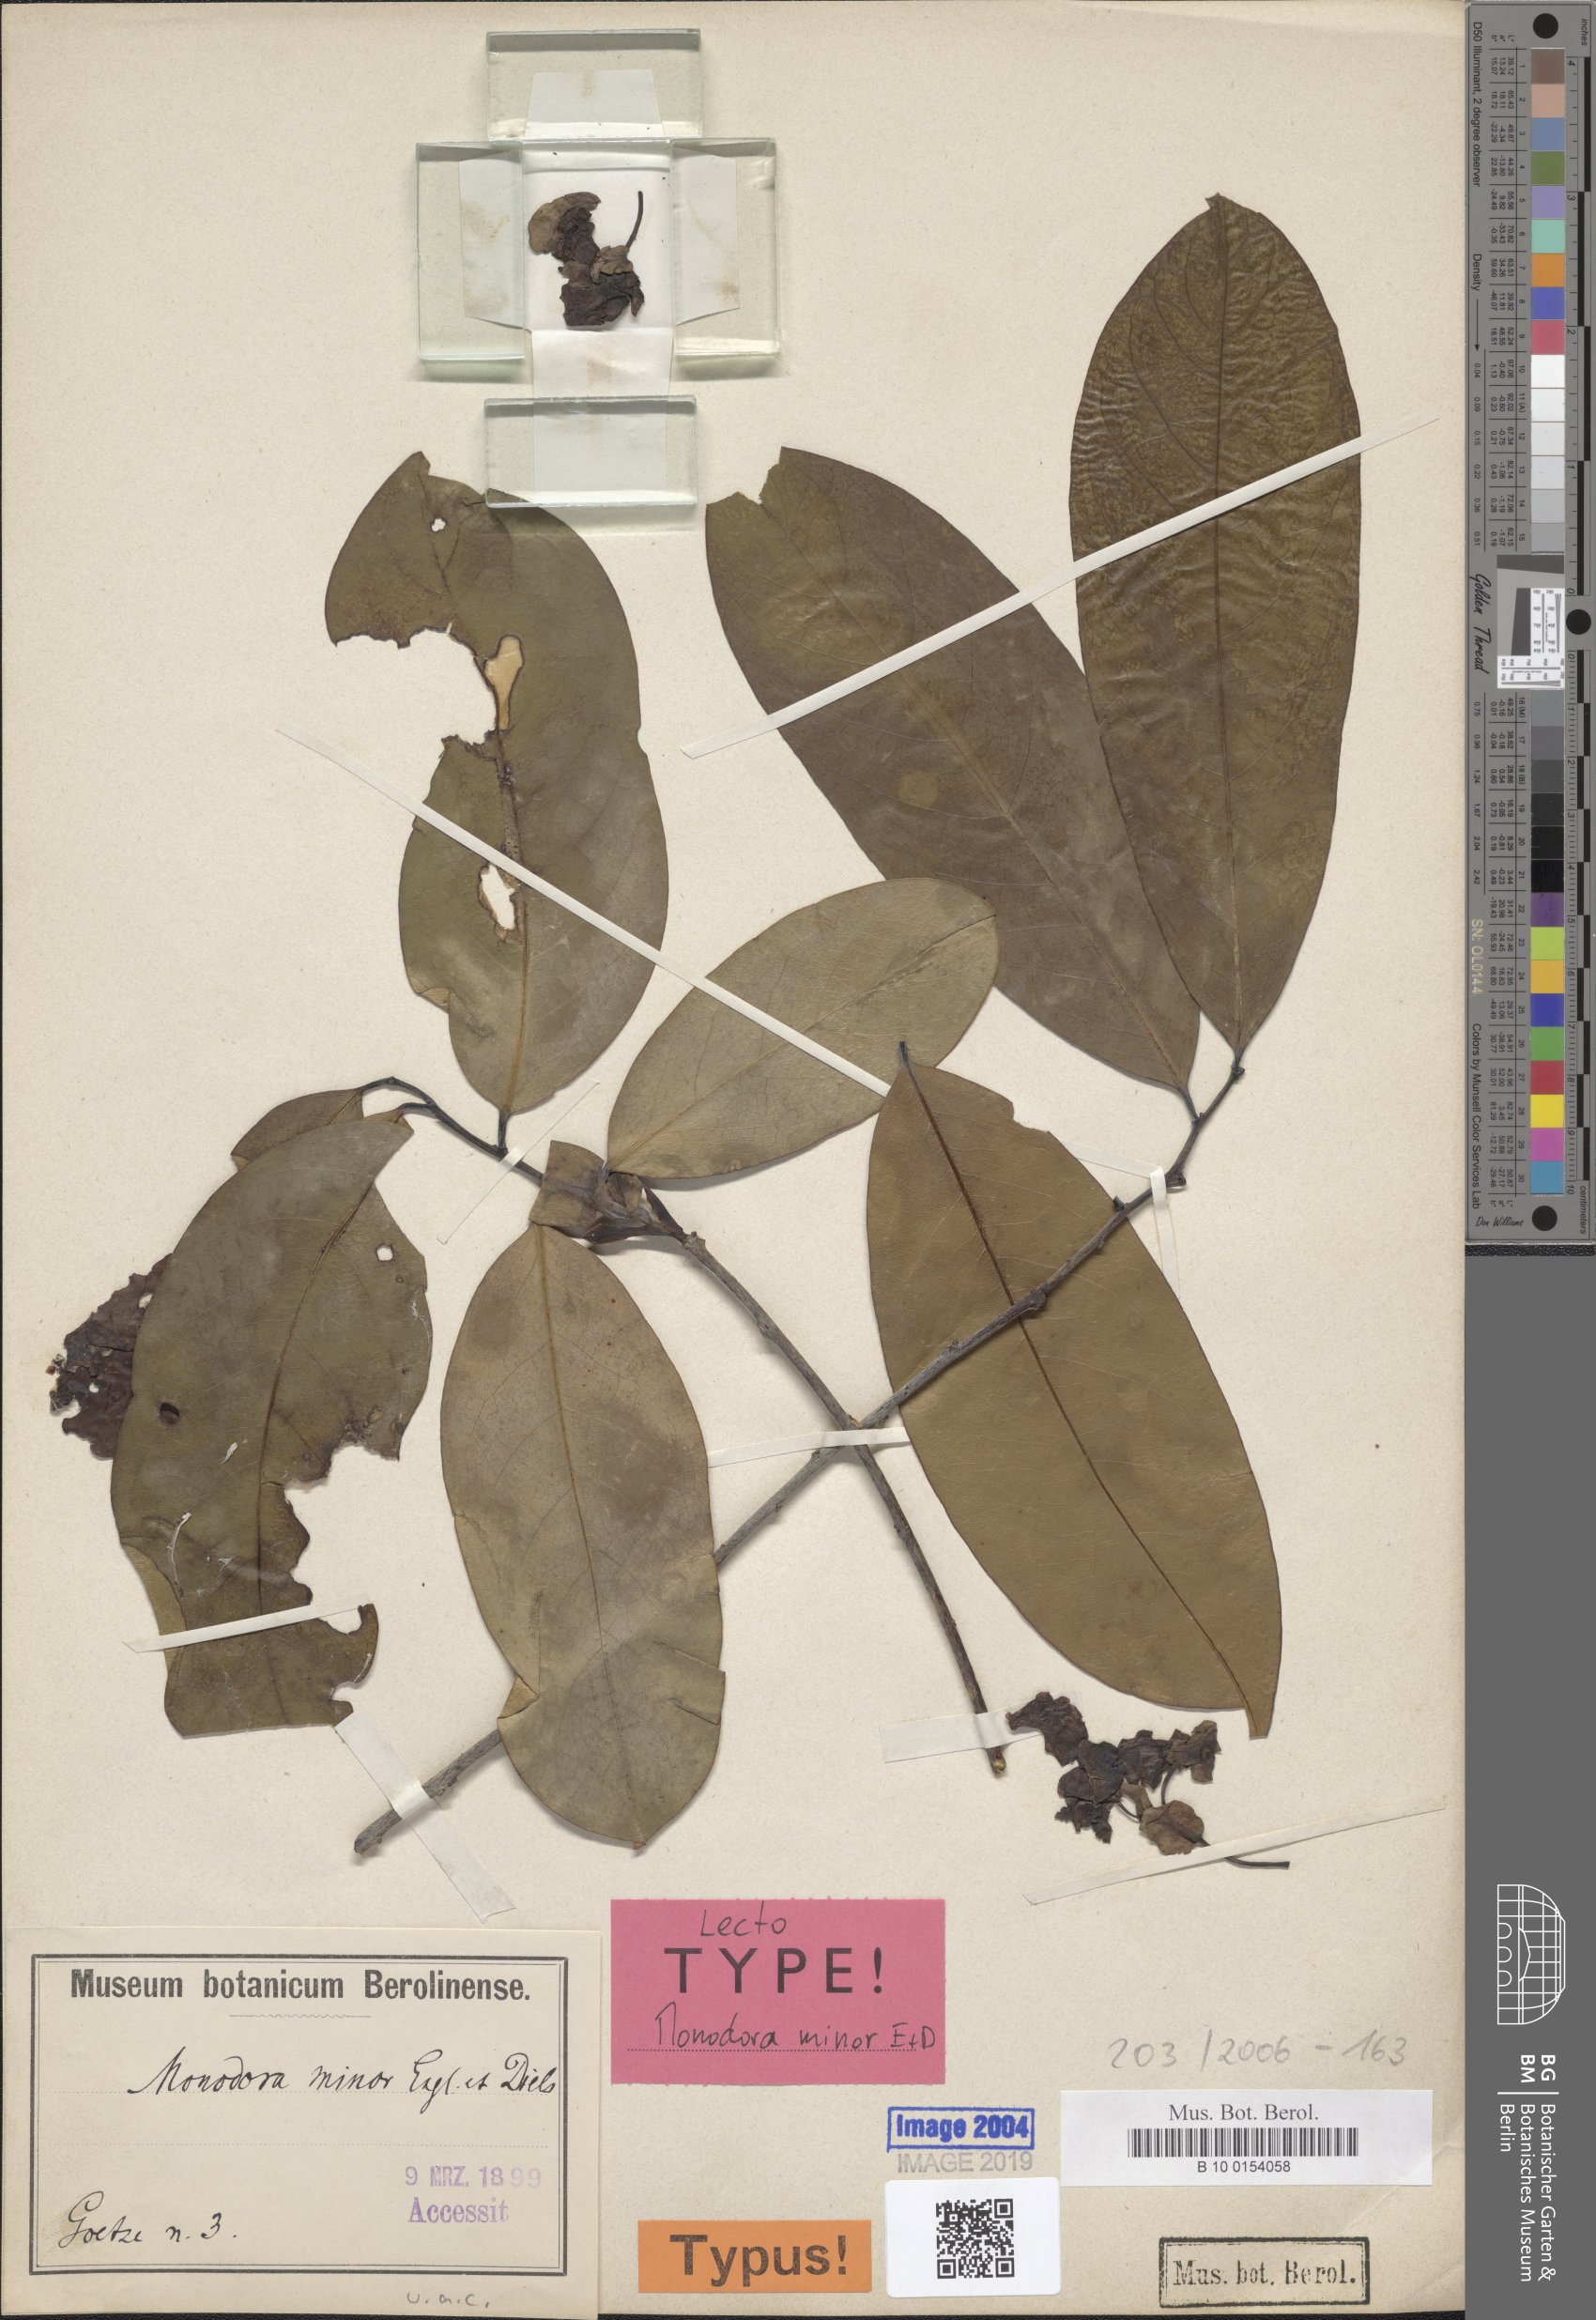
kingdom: Plantae
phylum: Tracheophyta
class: Magnoliopsida
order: Magnoliales
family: Annonaceae
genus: Monodora
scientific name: Monodora
